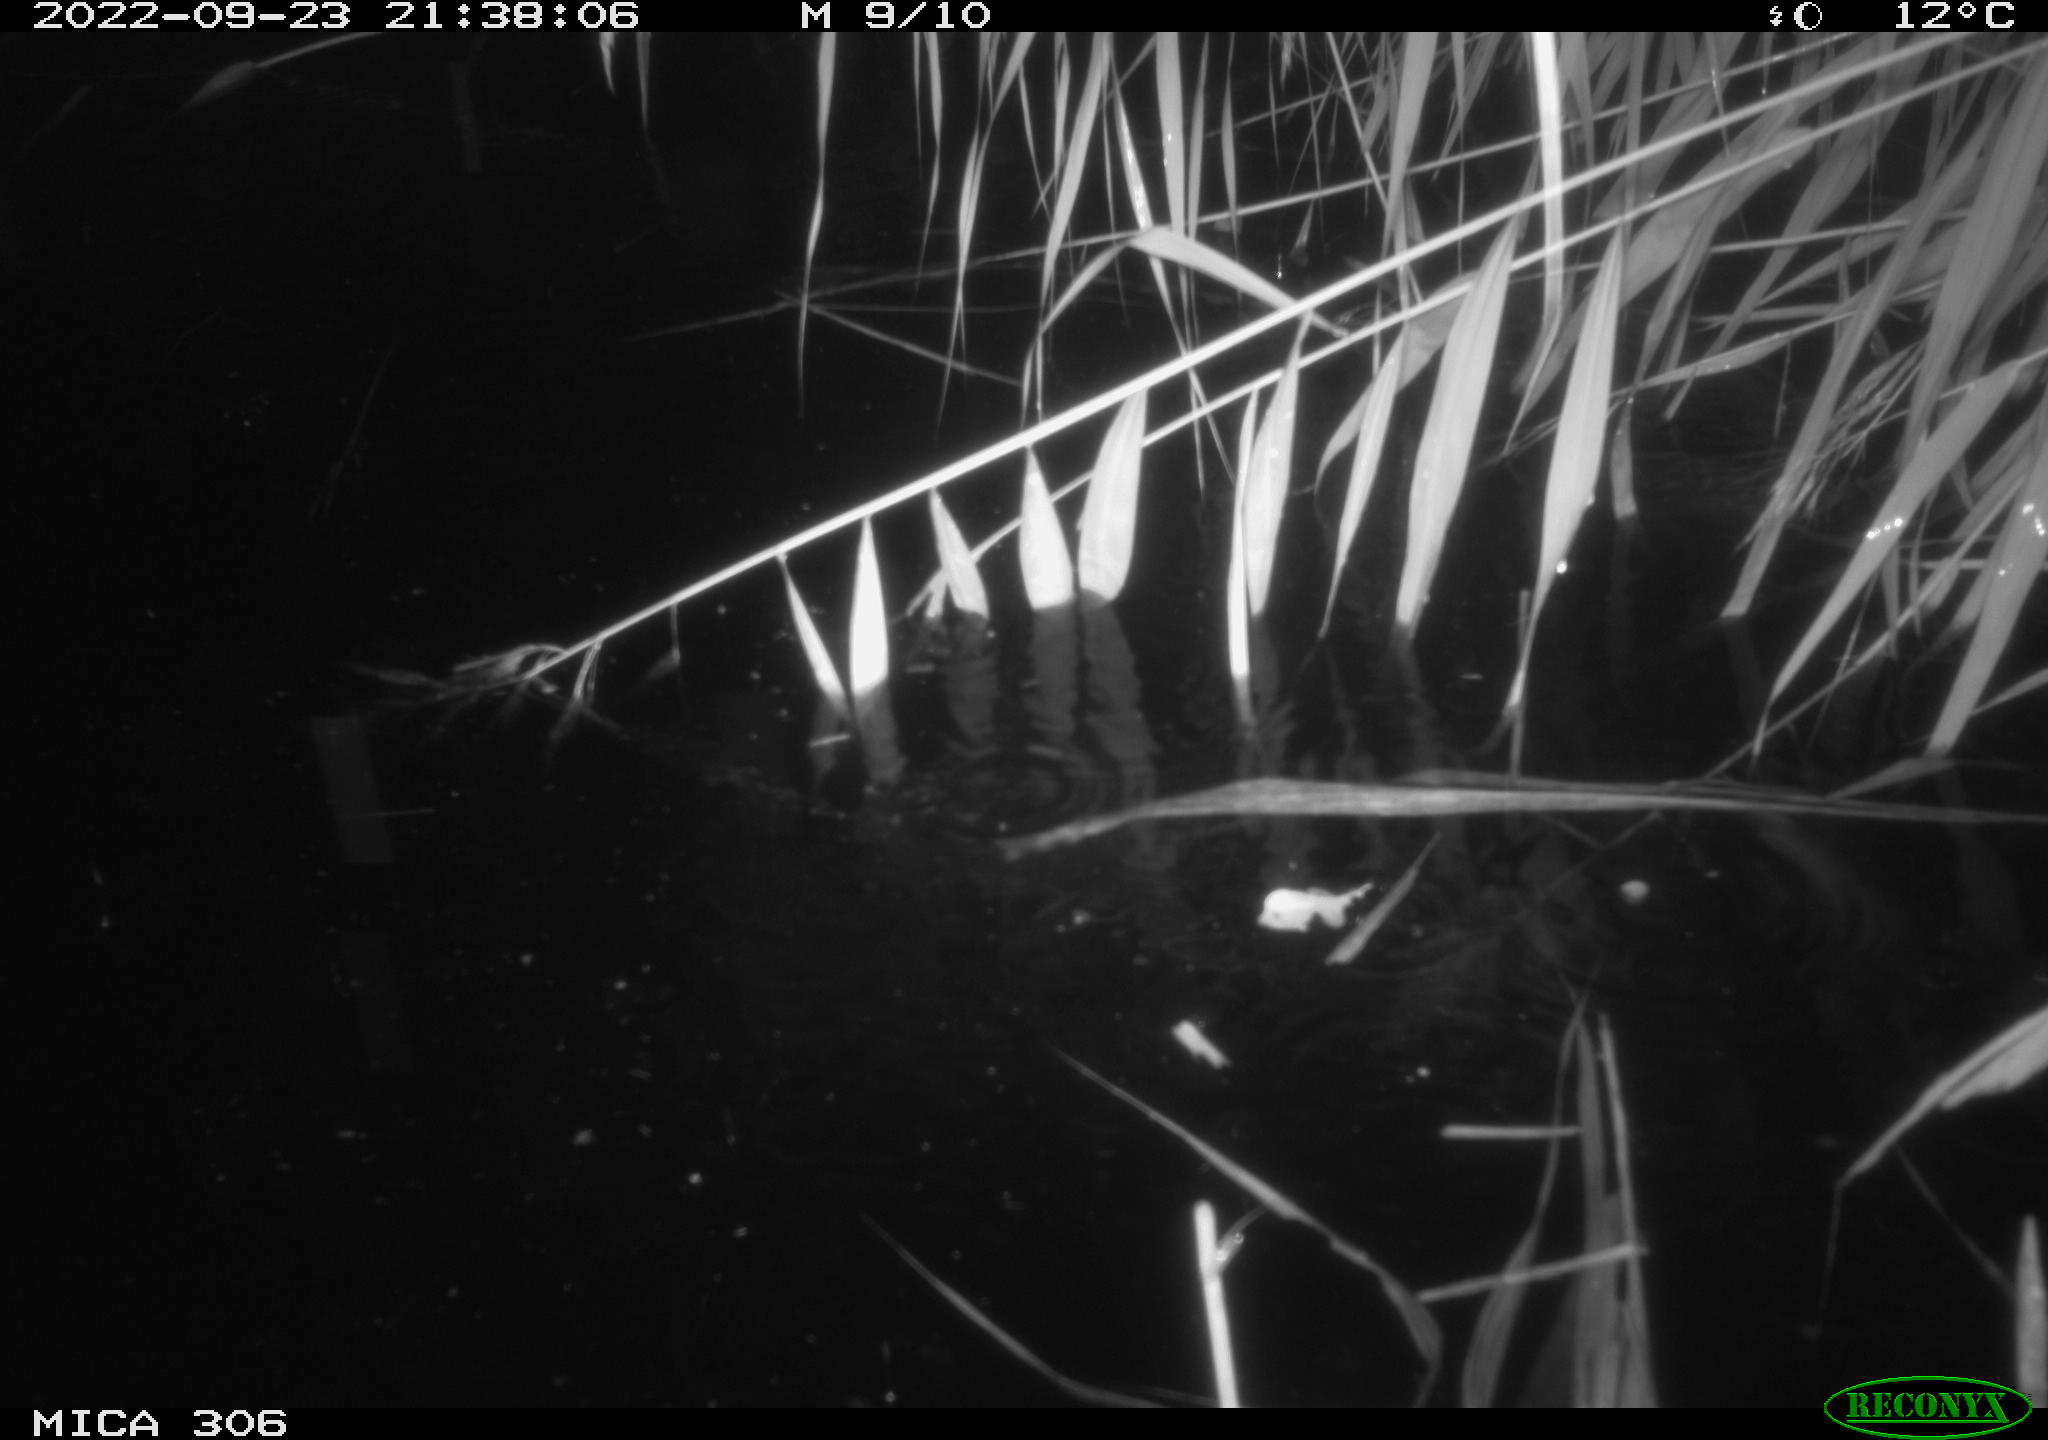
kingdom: Animalia
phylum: Chordata
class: Mammalia
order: Rodentia
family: Muridae
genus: Rattus
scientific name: Rattus norvegicus
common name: Brown rat
